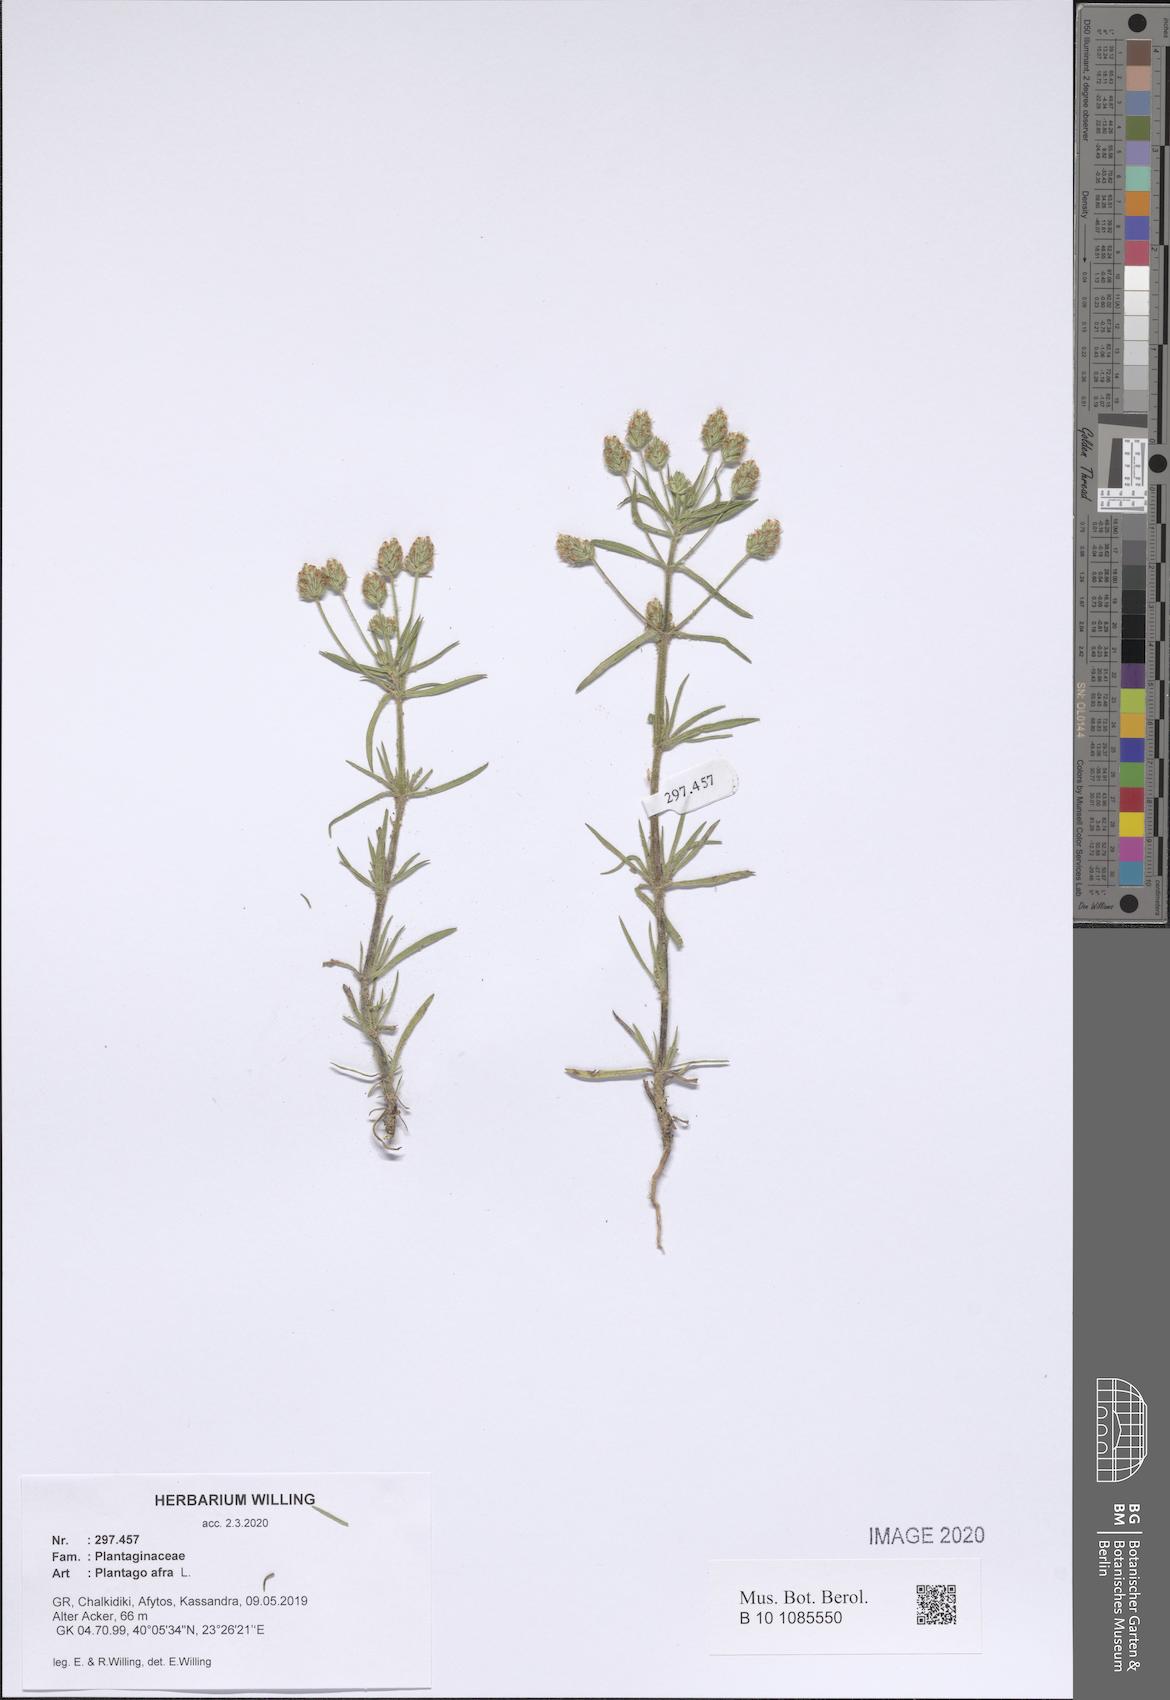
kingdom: Plantae
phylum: Tracheophyta
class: Magnoliopsida
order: Lamiales
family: Plantaginaceae
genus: Plantago
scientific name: Plantago afra
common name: Glandular plantain
